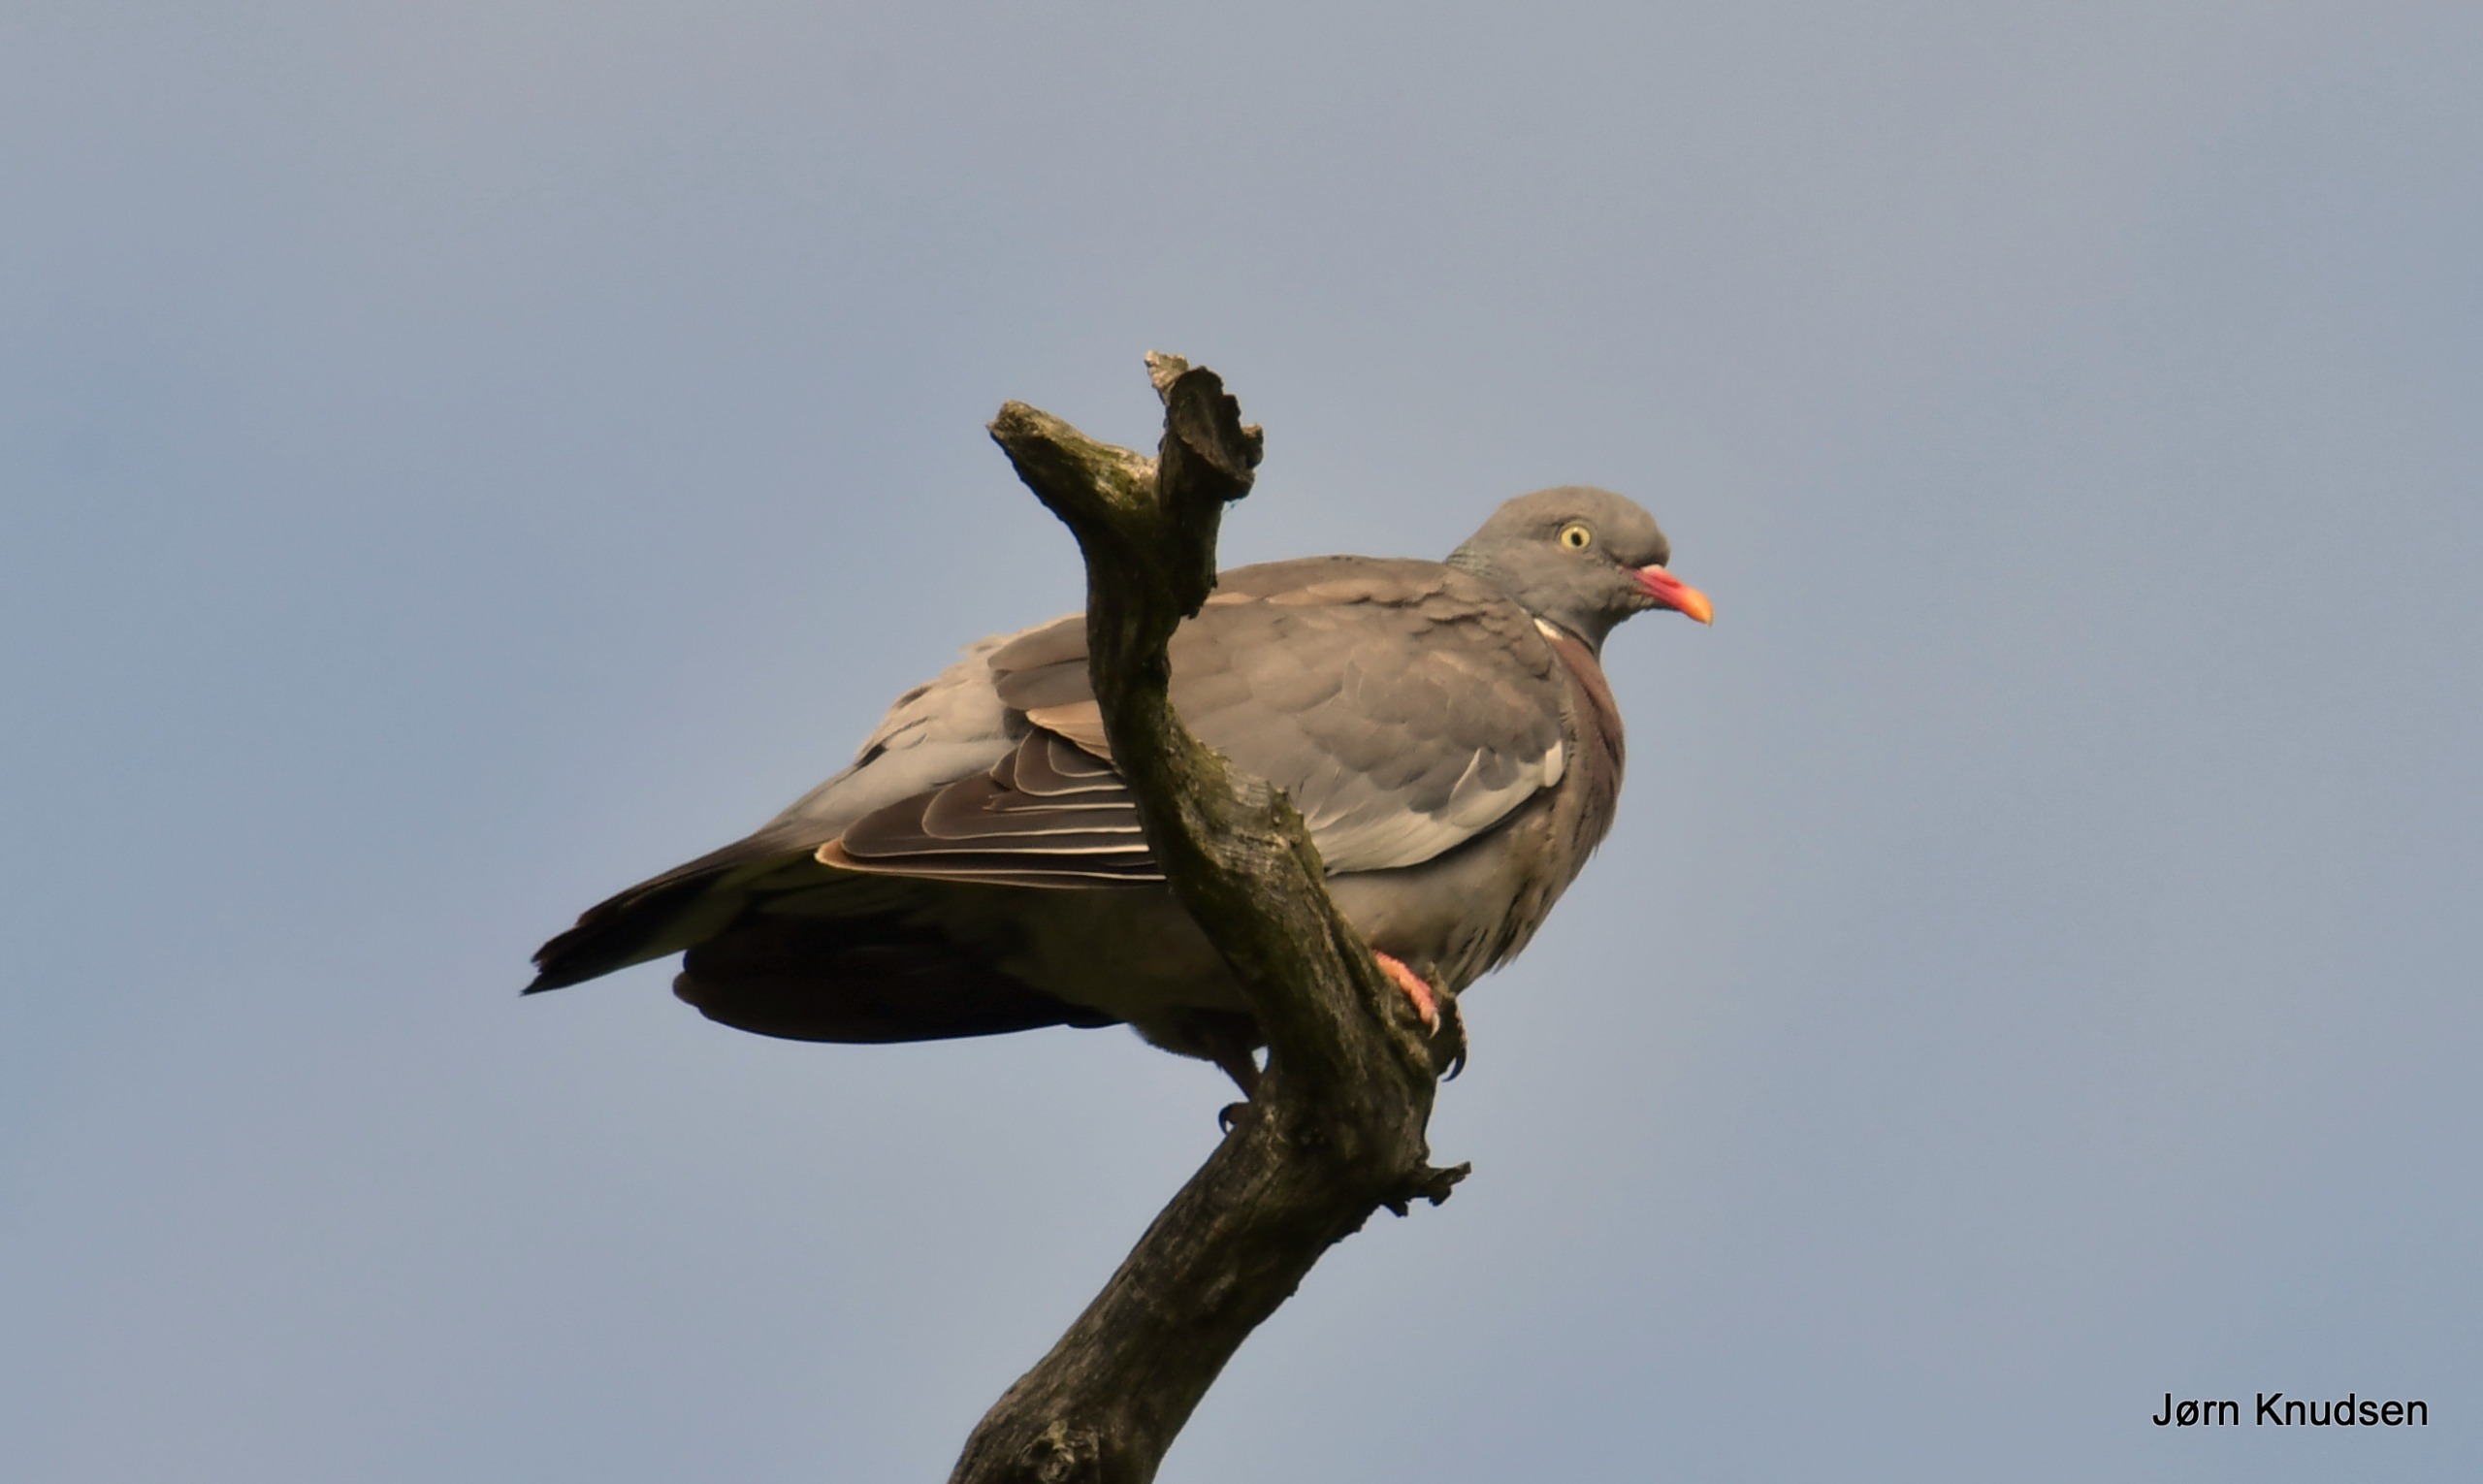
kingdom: Animalia
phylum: Chordata
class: Aves
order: Columbiformes
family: Columbidae
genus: Columba
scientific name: Columba palumbus
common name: Ringdue
